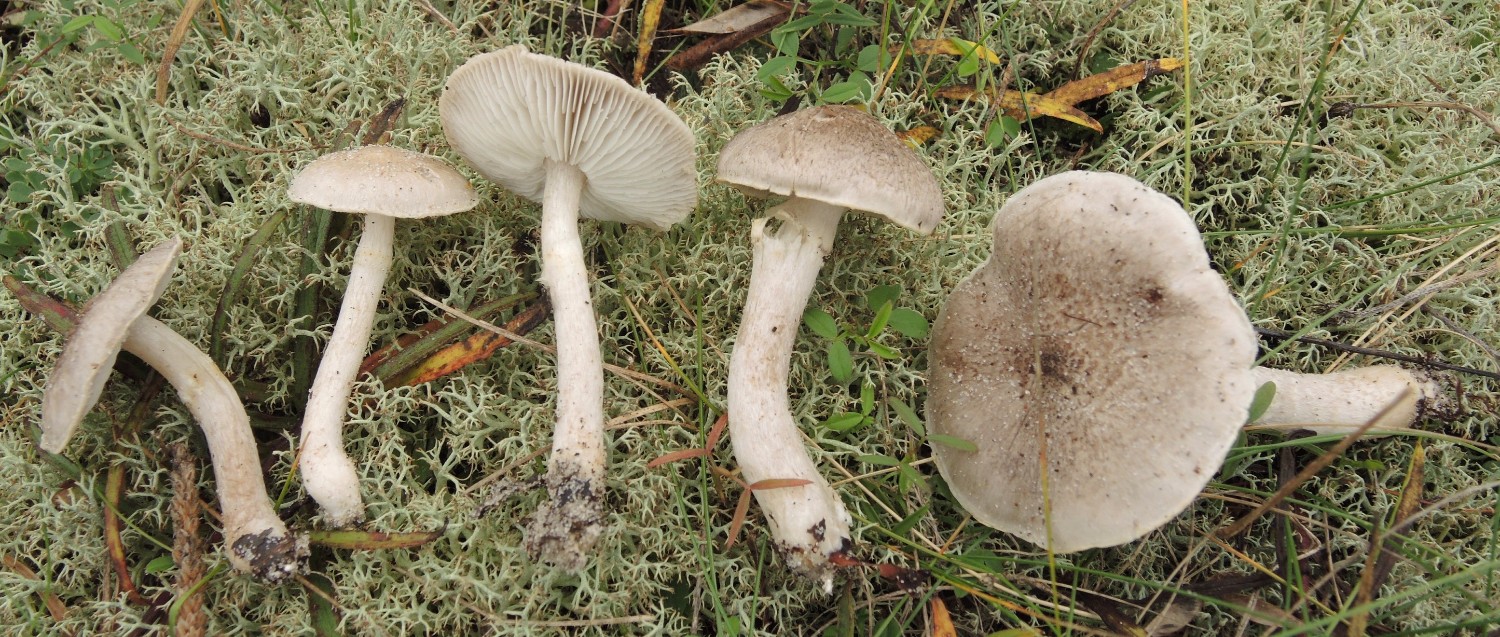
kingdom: Fungi
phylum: Basidiomycota
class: Agaricomycetes
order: Agaricales
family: Tricholomataceae
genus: Tricholoma
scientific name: Tricholoma cingulatum
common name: ring-ridderhat
